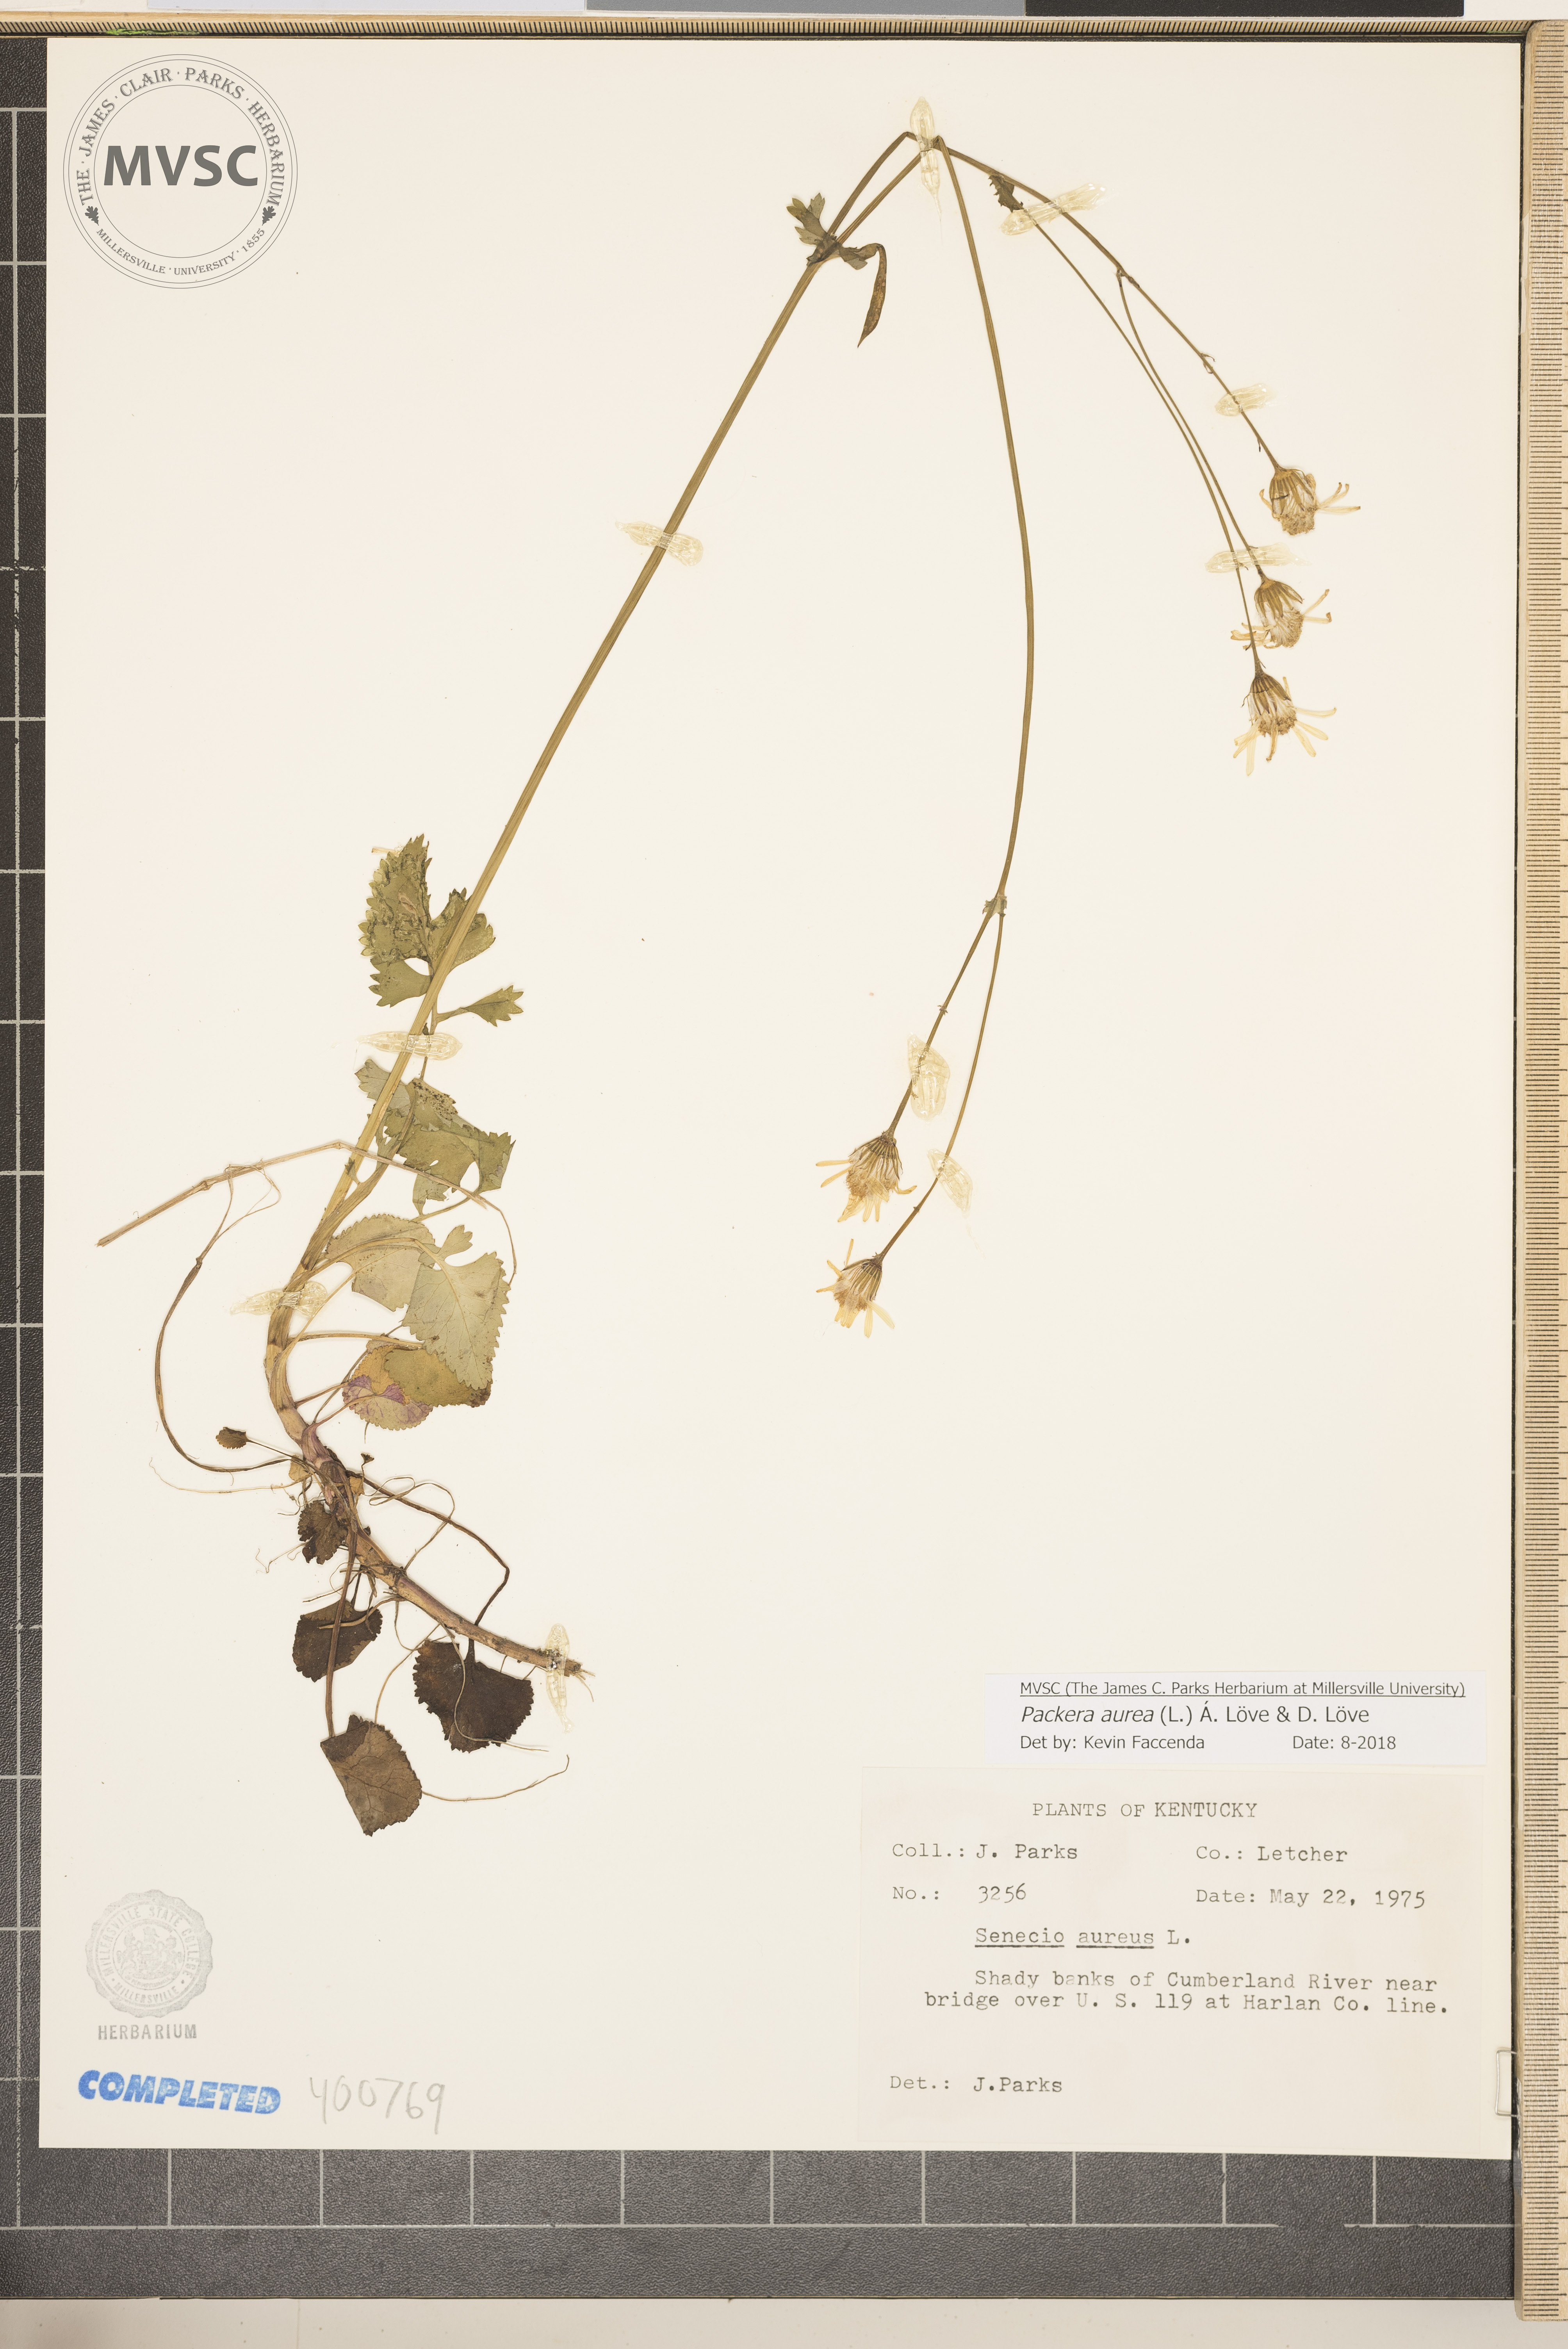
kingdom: Plantae
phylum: Tracheophyta
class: Magnoliopsida
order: Asterales
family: Asteraceae
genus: Packera
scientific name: Packera aurea
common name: Golden groundsel
